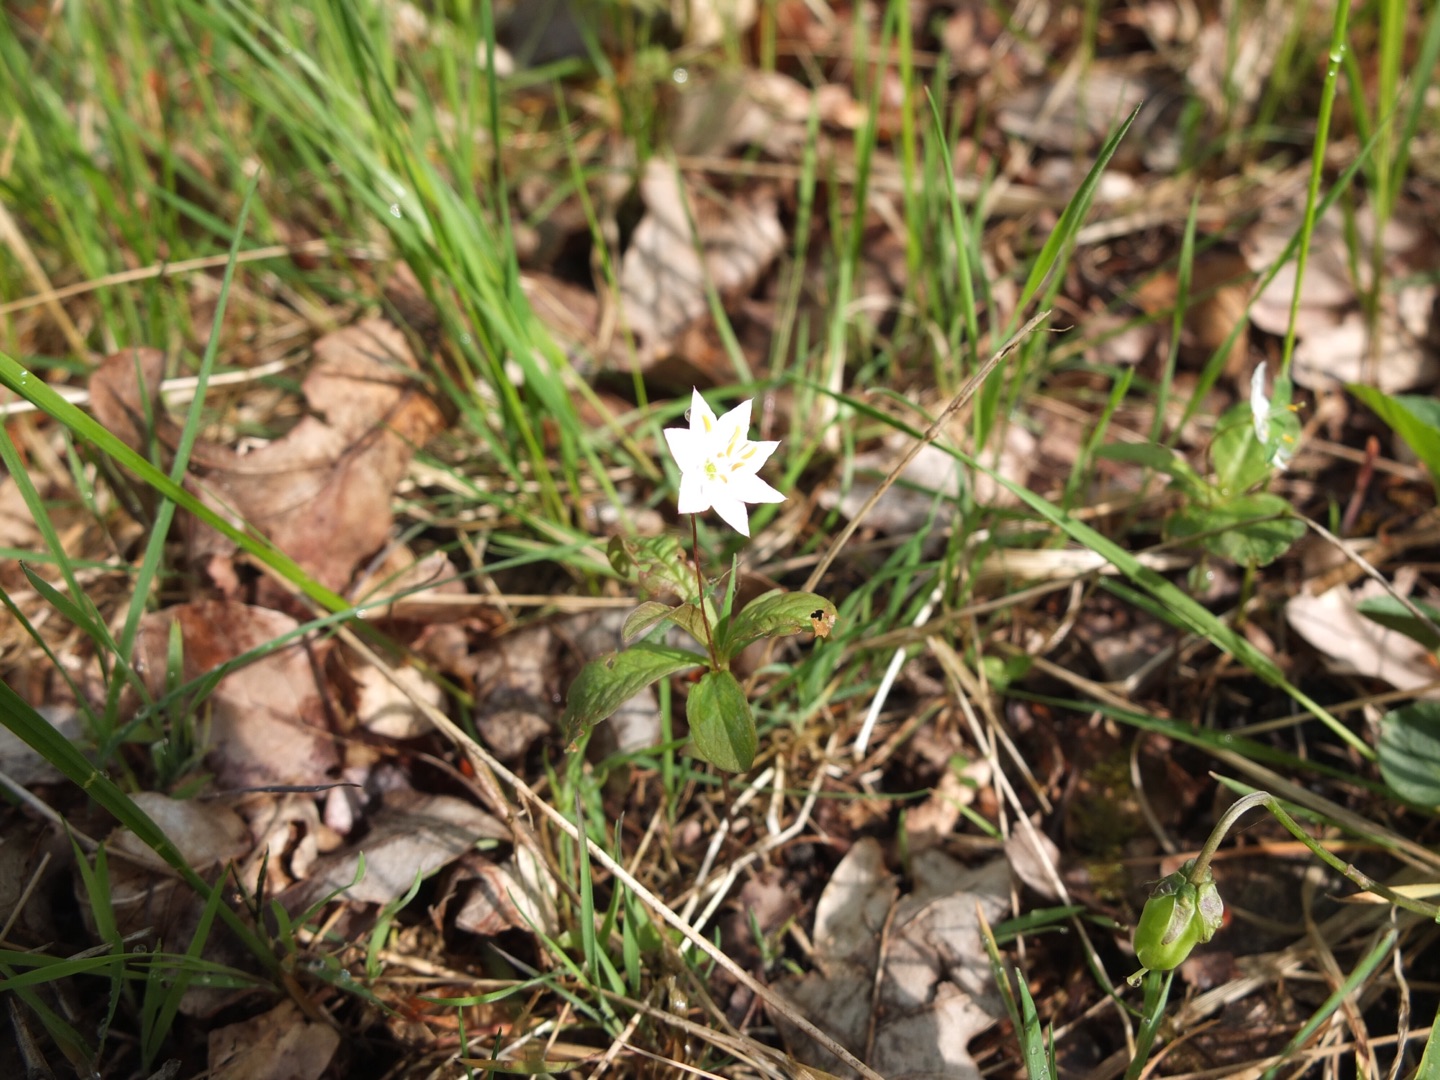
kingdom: Plantae
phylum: Tracheophyta
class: Magnoliopsida
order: Ericales
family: Primulaceae
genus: Lysimachia
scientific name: Lysimachia europaea
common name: Skovstjerne
